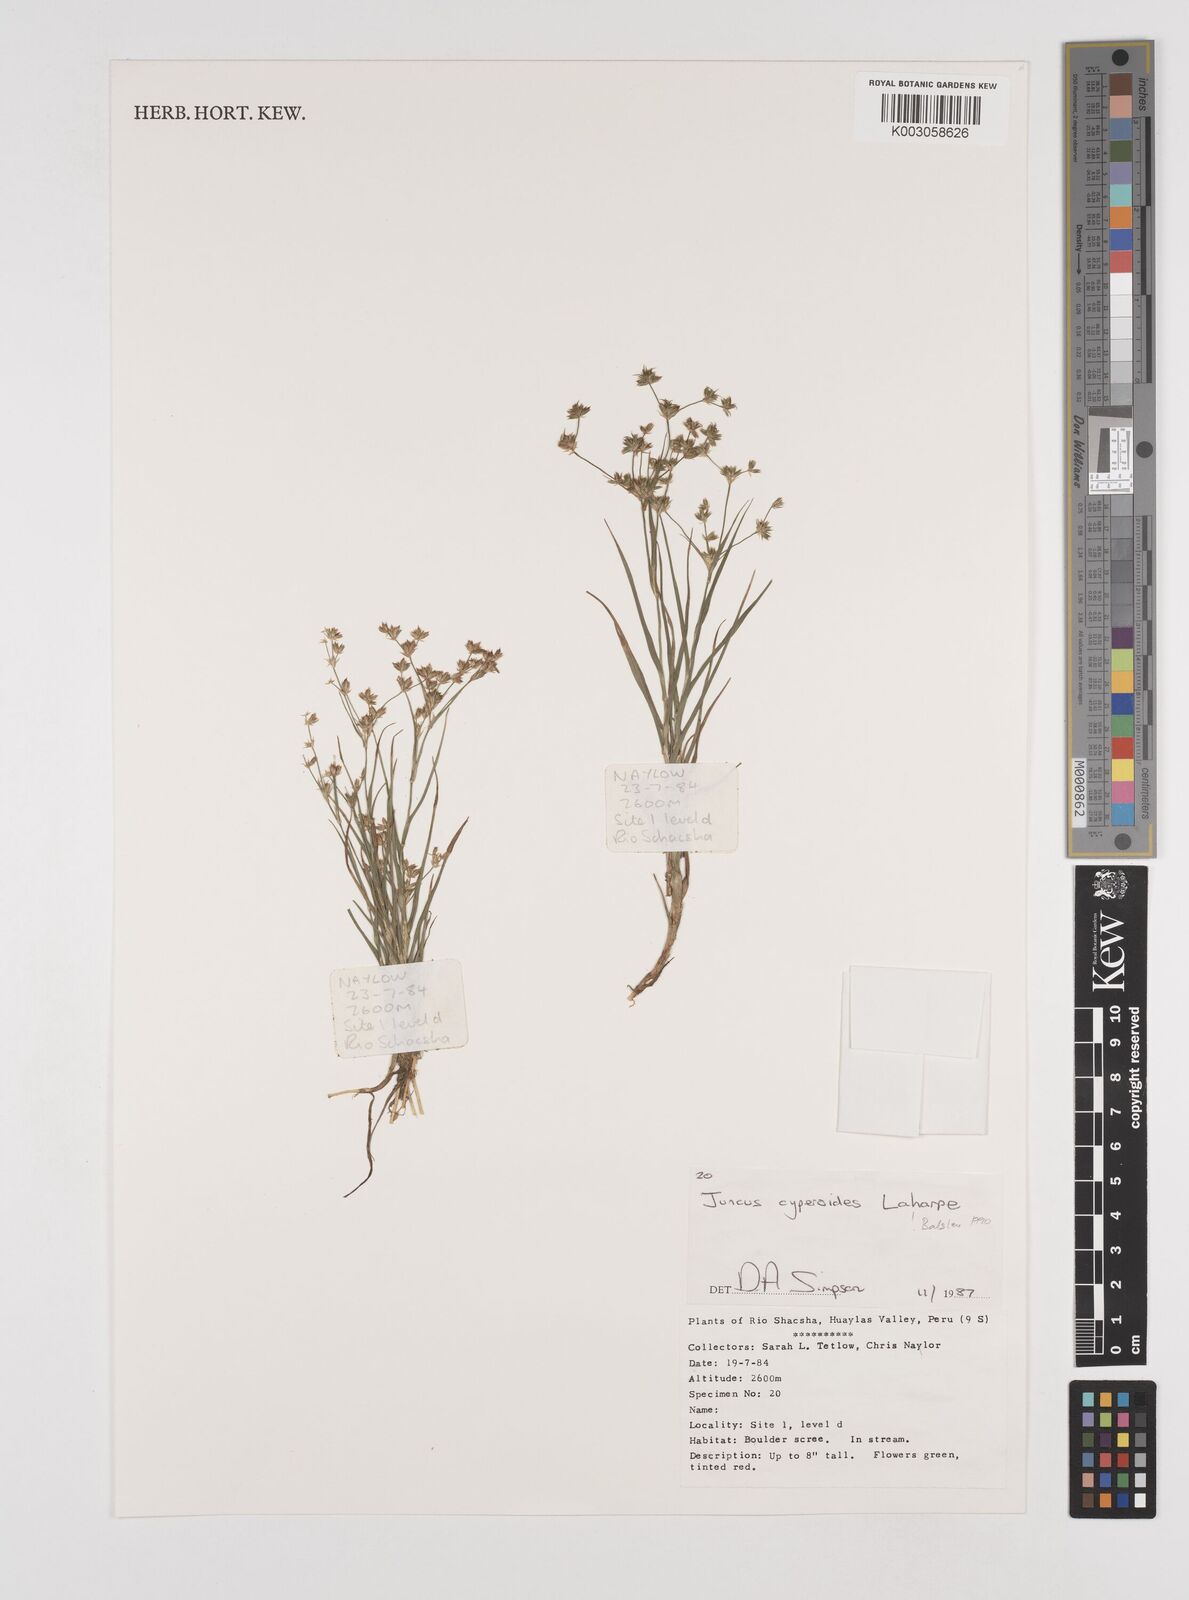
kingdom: Plantae
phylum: Tracheophyta
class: Liliopsida
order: Poales
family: Juncaceae
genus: Juncus
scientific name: Juncus cyperoides
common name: Forbestown rush
